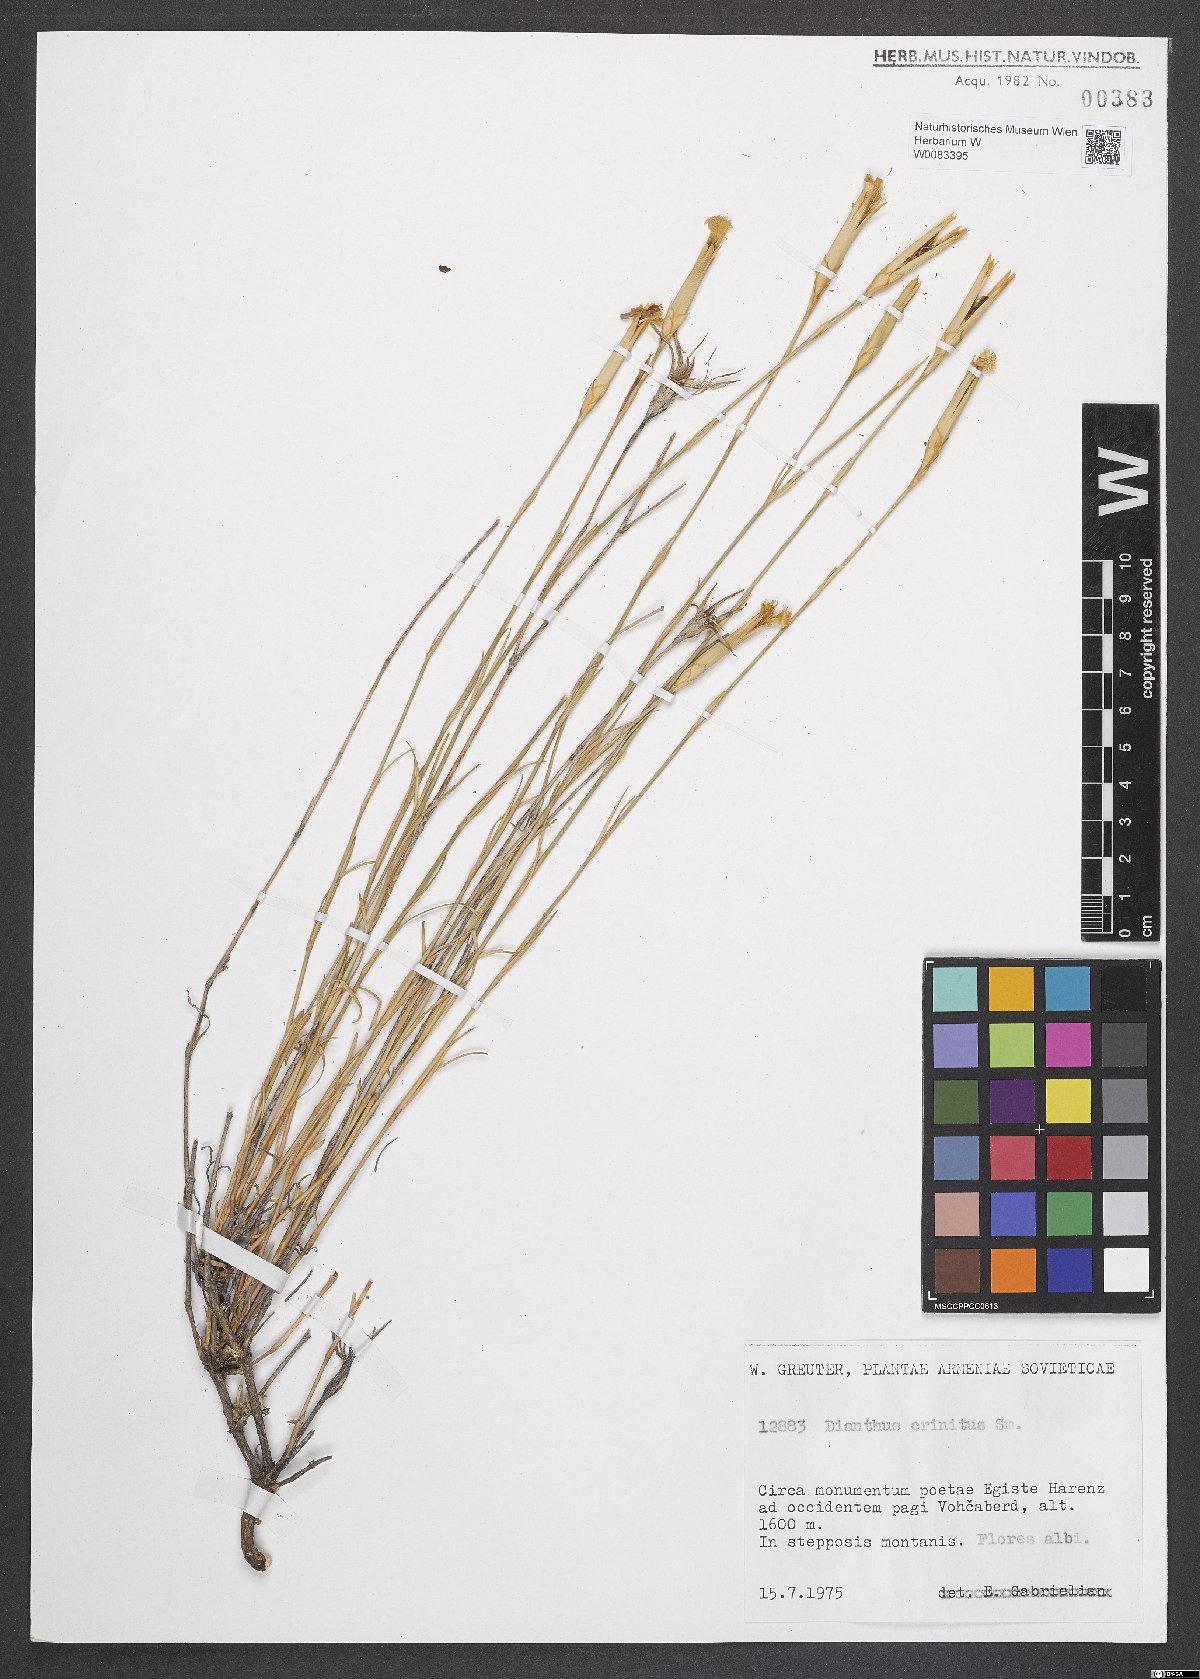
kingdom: Plantae
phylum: Tracheophyta
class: Magnoliopsida
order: Caryophyllales
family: Caryophyllaceae
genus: Dianthus
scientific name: Dianthus crinitus
